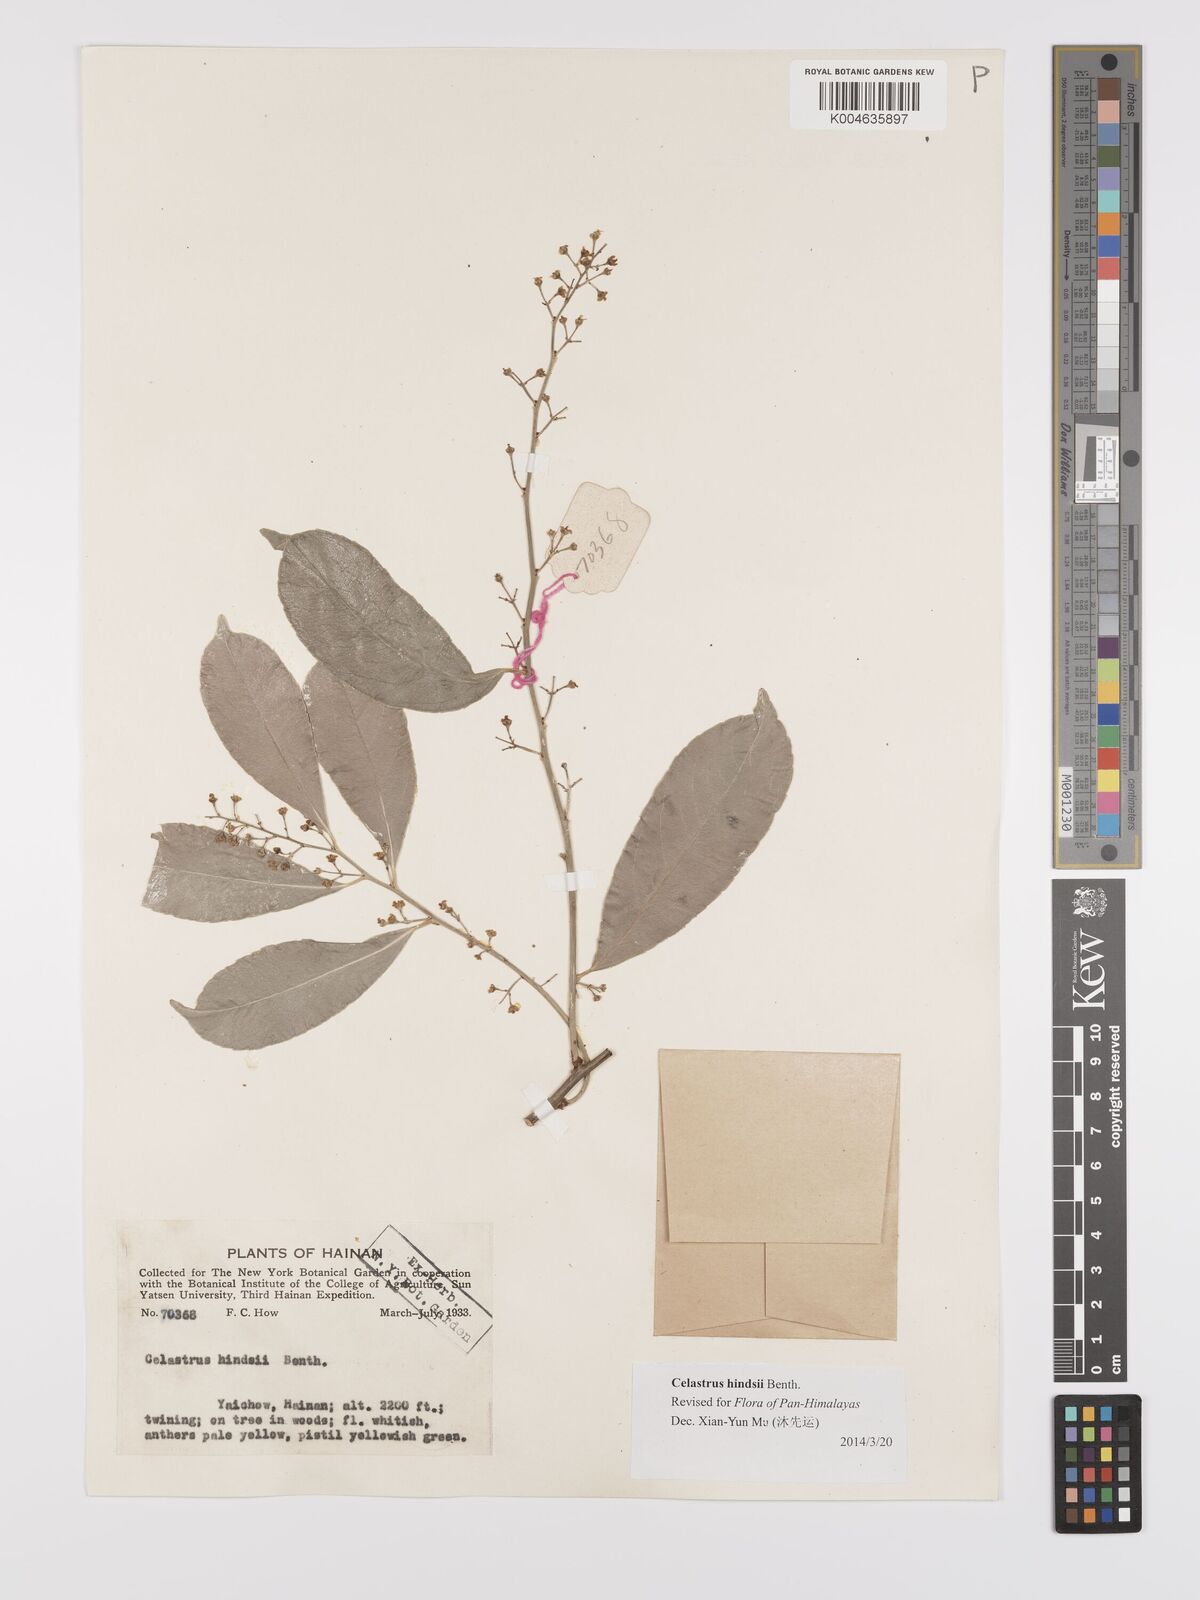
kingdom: Plantae
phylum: Tracheophyta
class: Magnoliopsida
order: Celastrales
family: Celastraceae
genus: Celastrus
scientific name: Celastrus hindsii
